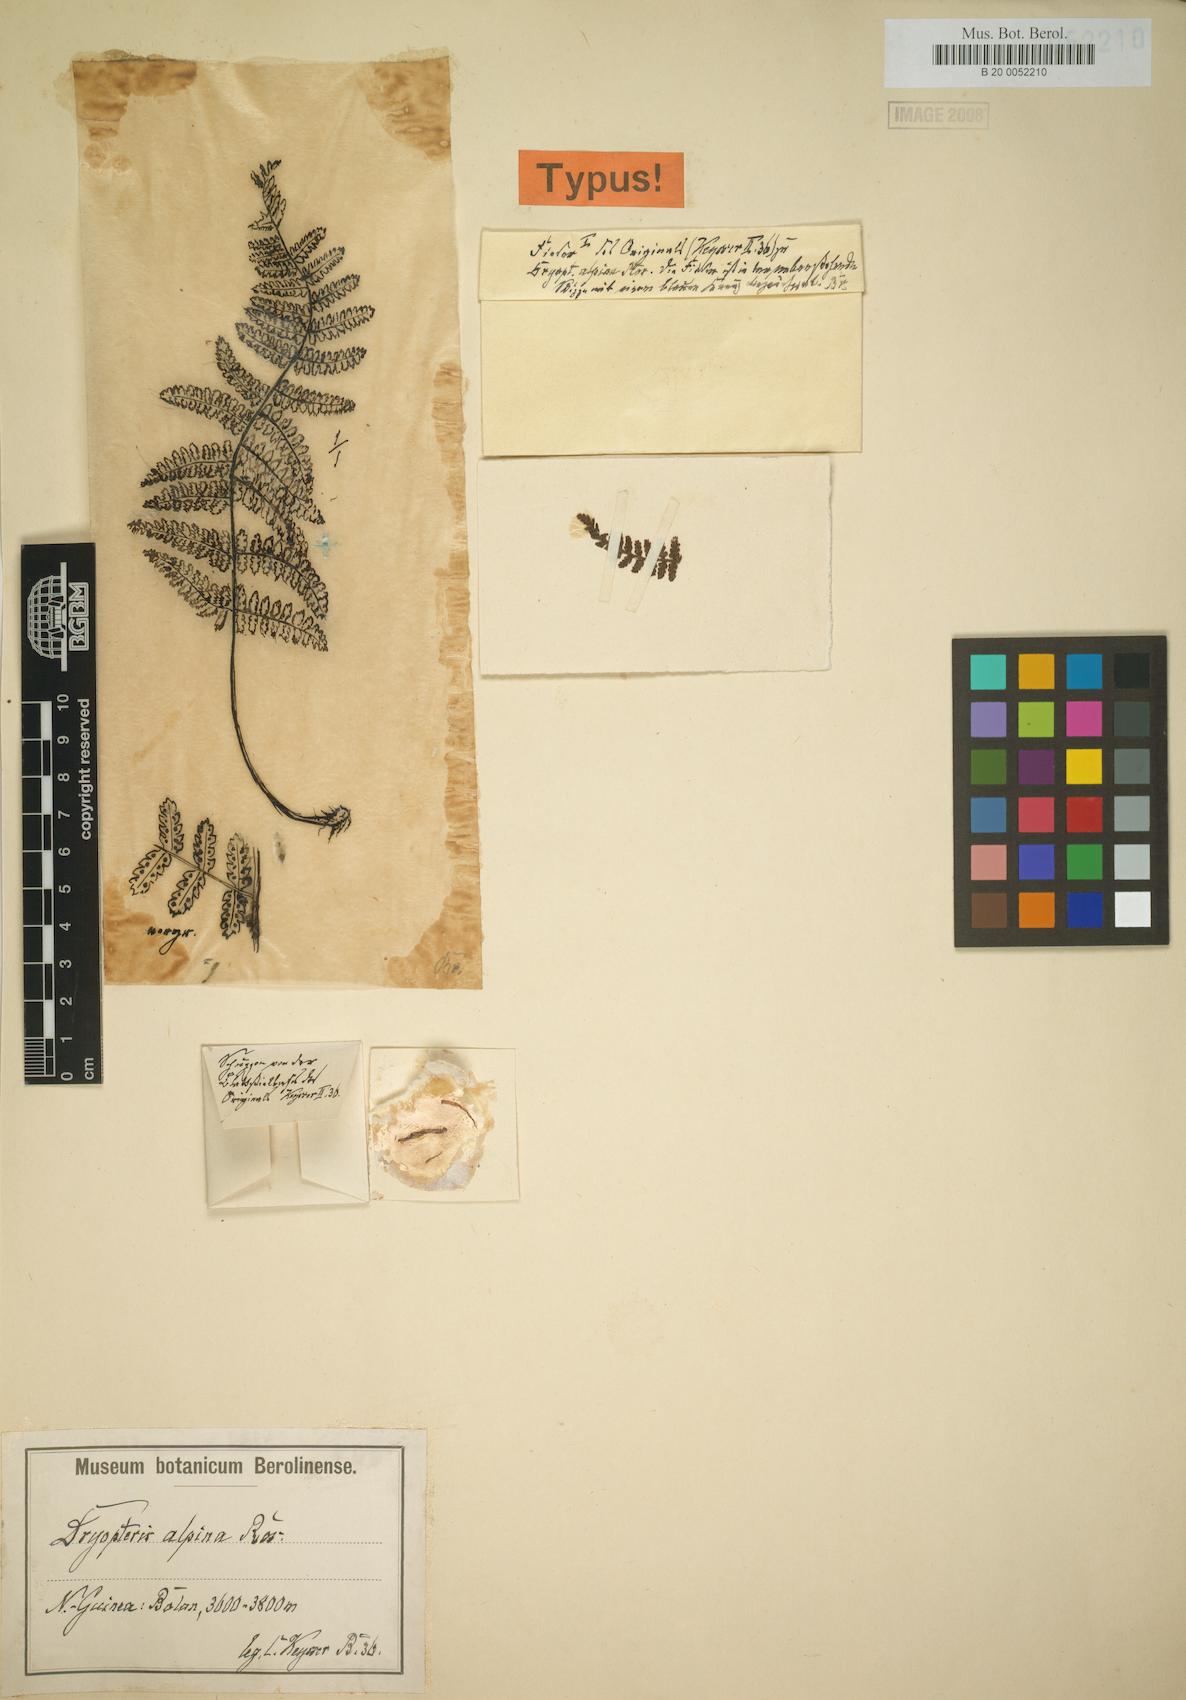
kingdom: Plantae
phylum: Tracheophyta
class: Polypodiopsida
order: Polypodiales
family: Dryopteridaceae
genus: Dryopteris
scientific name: Dryopteris alpina
